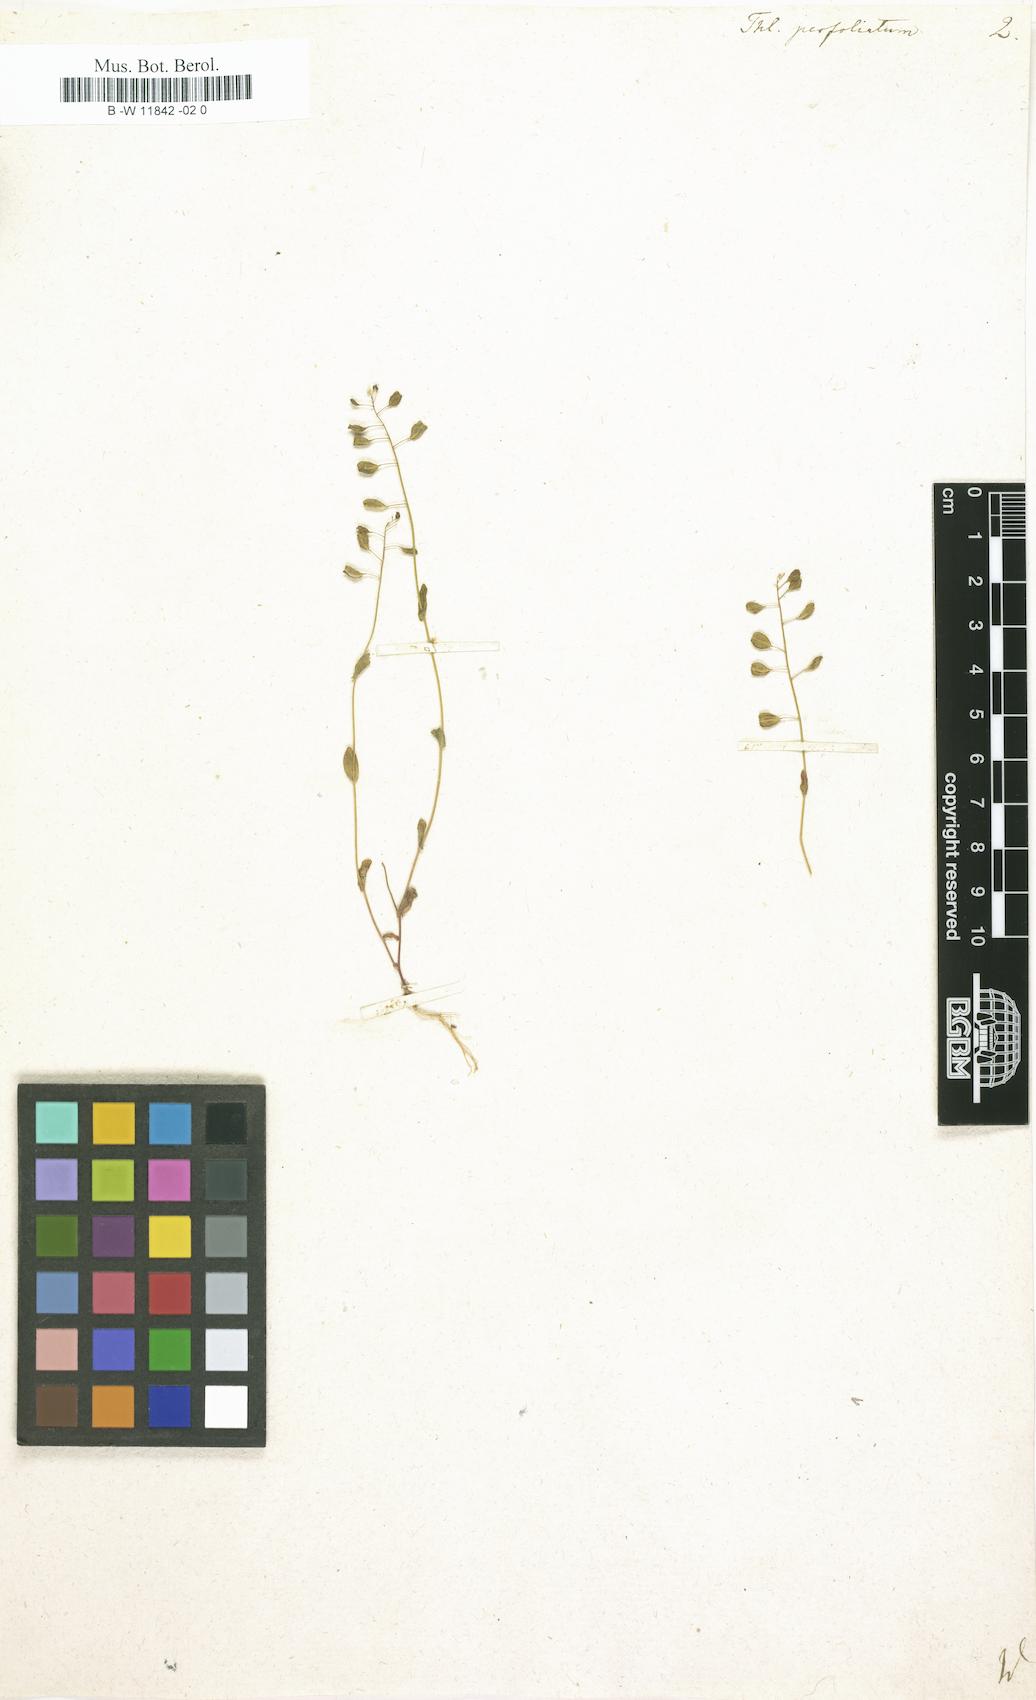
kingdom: Plantae
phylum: Tracheophyta
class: Magnoliopsida
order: Brassicales
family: Brassicaceae
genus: Noccaea
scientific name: Noccaea perfoliata
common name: Perfoliate pennycress
